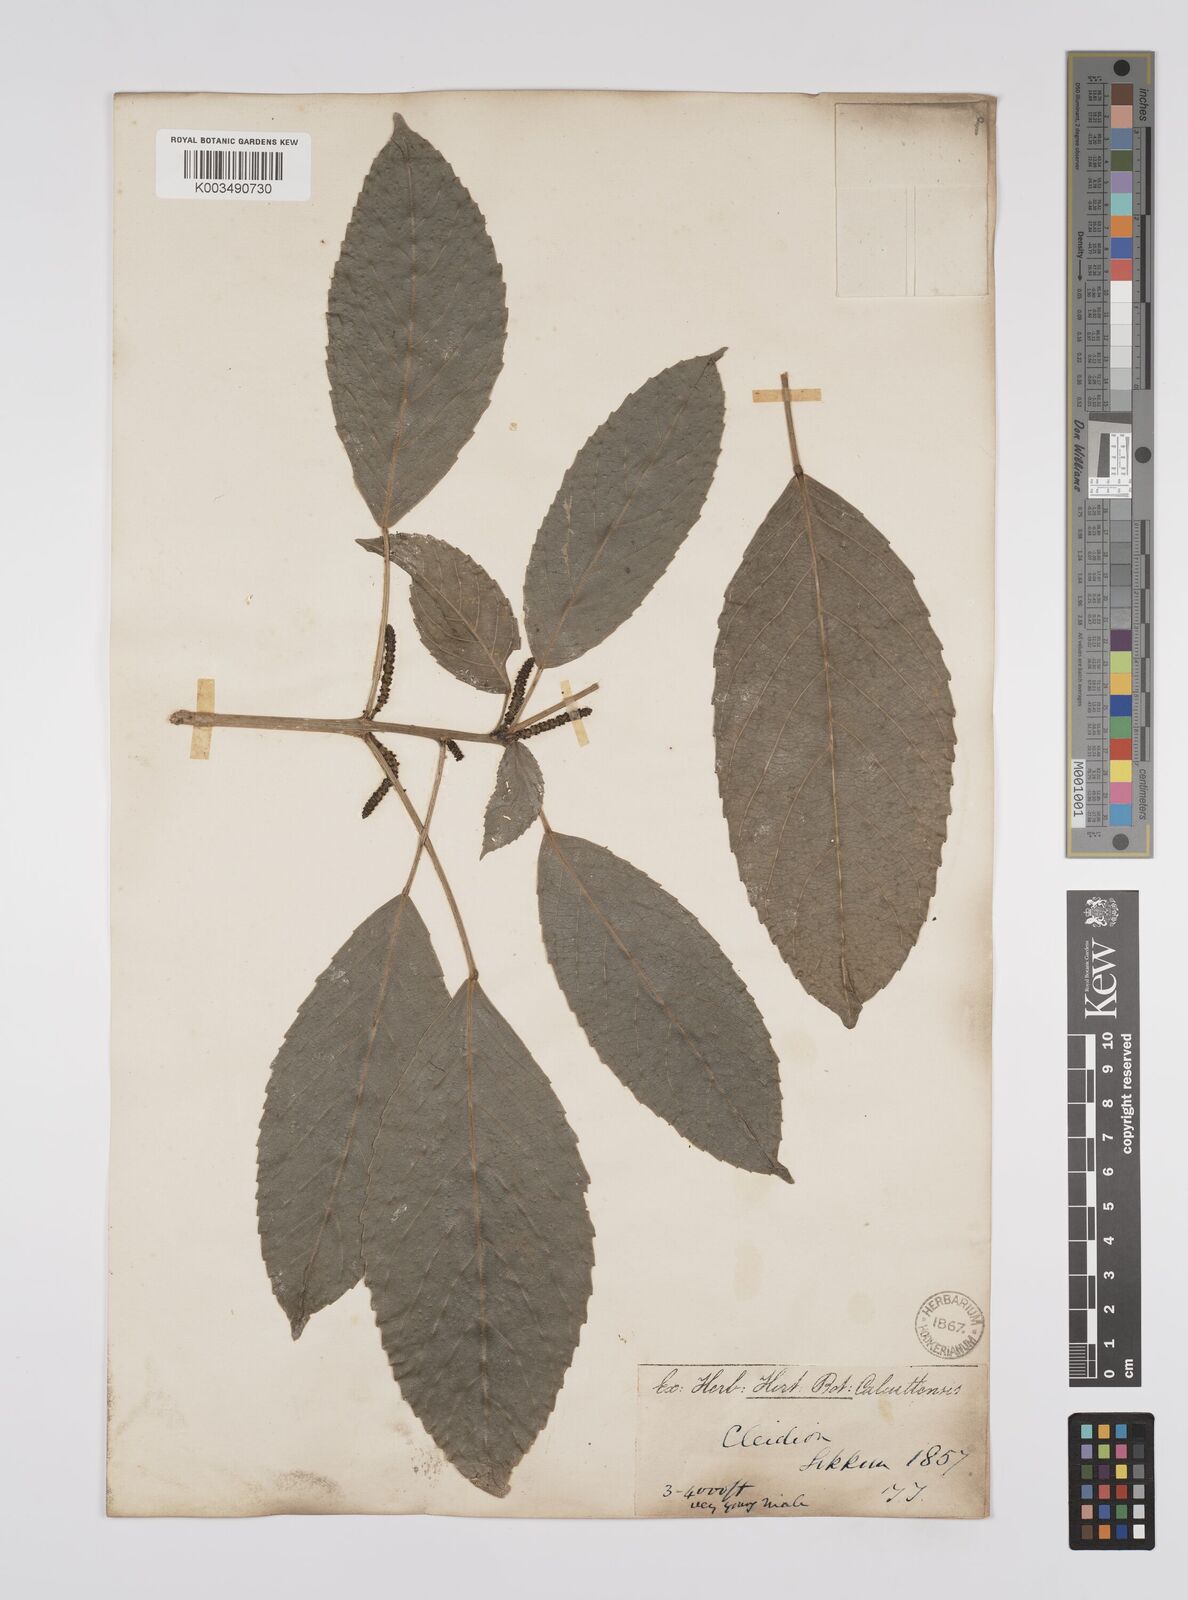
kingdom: Plantae
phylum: Tracheophyta
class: Magnoliopsida
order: Malpighiales
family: Euphorbiaceae
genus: Acalypha
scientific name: Acalypha spiciflora
